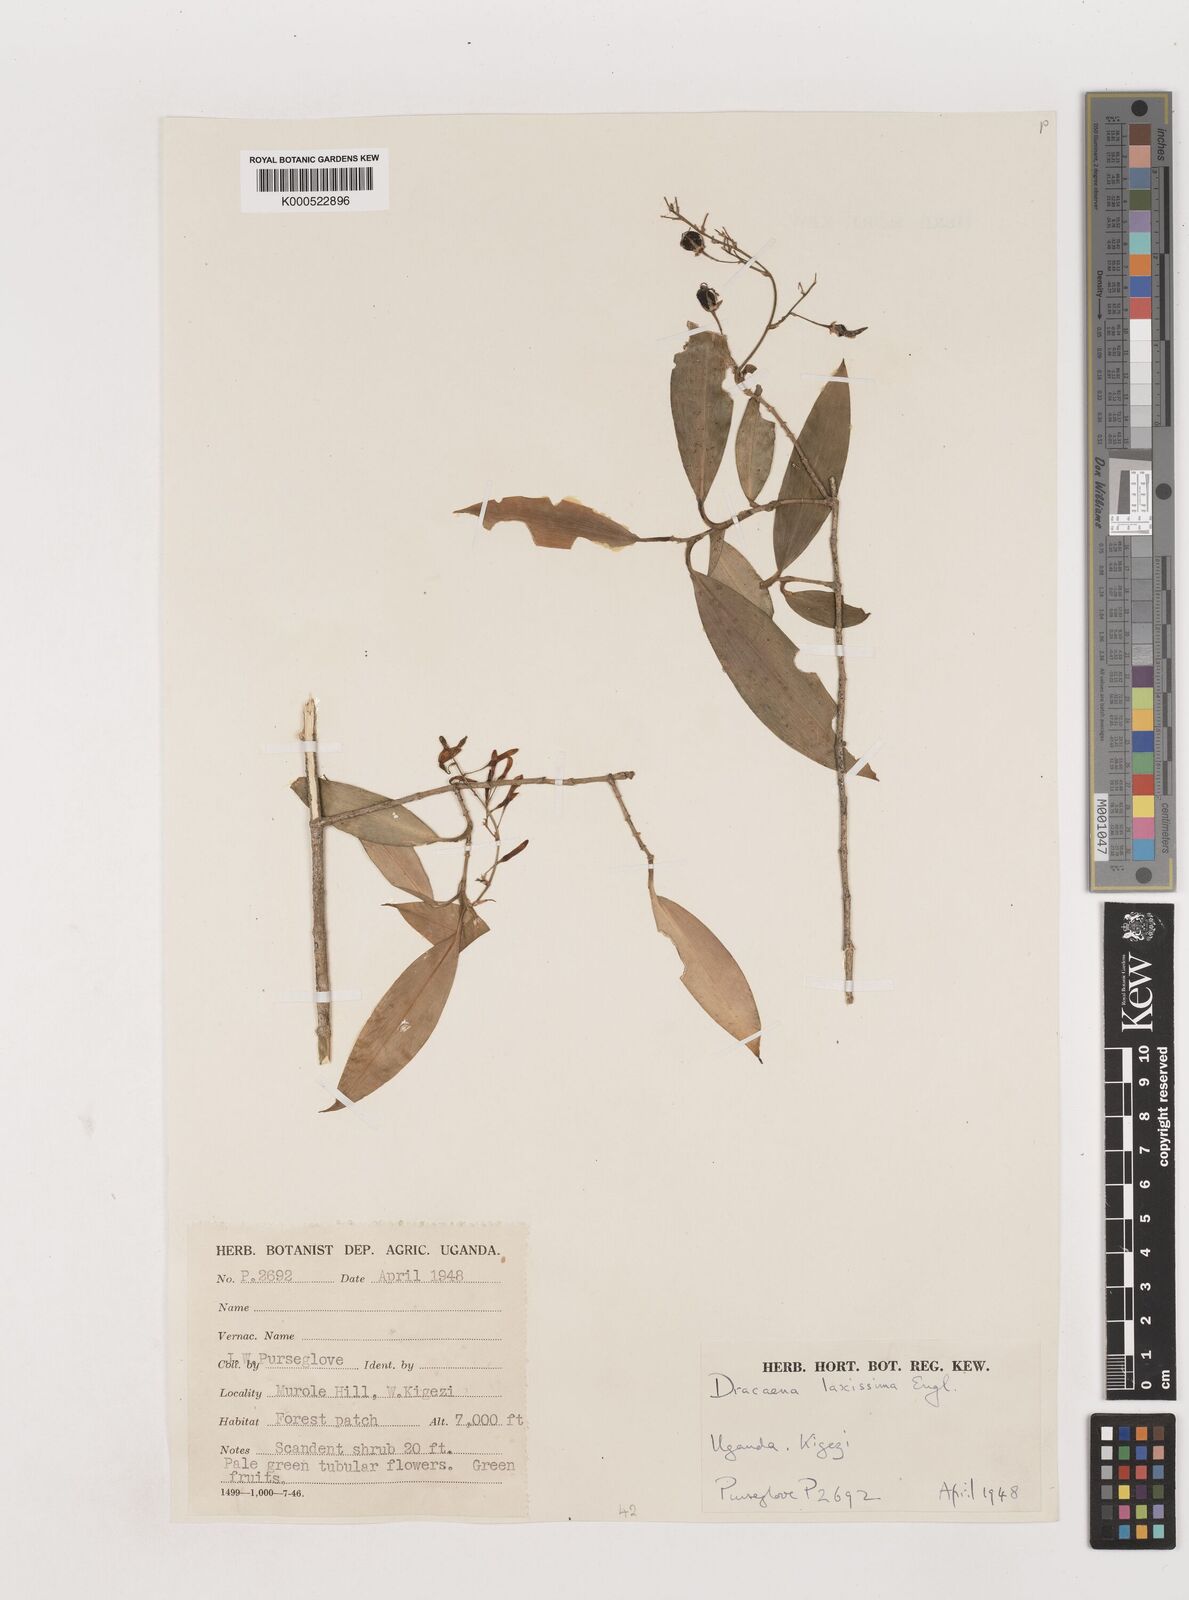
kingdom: Plantae
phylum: Tracheophyta
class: Liliopsida
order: Asparagales
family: Asparagaceae
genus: Dracaena
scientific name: Dracaena laxissima
